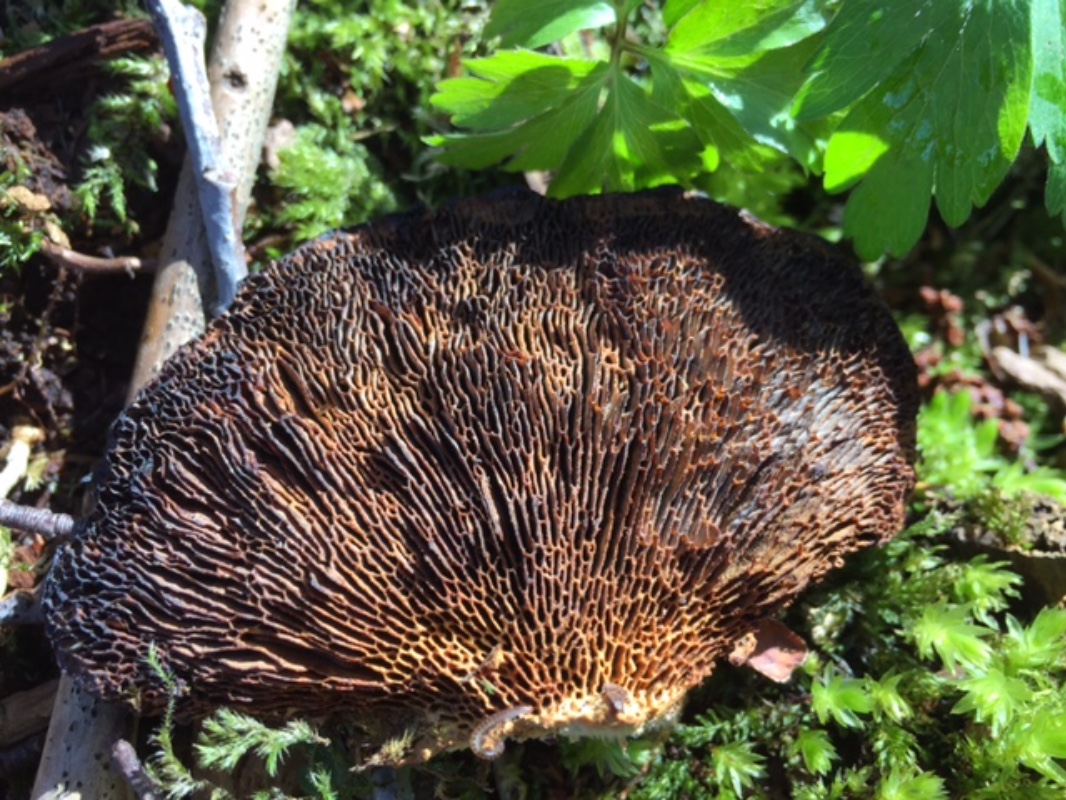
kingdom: Fungi
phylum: Basidiomycota
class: Agaricomycetes
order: Polyporales
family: Polyporaceae
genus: Daedaleopsis
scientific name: Daedaleopsis confragosa
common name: rødmende læderporesvamp
